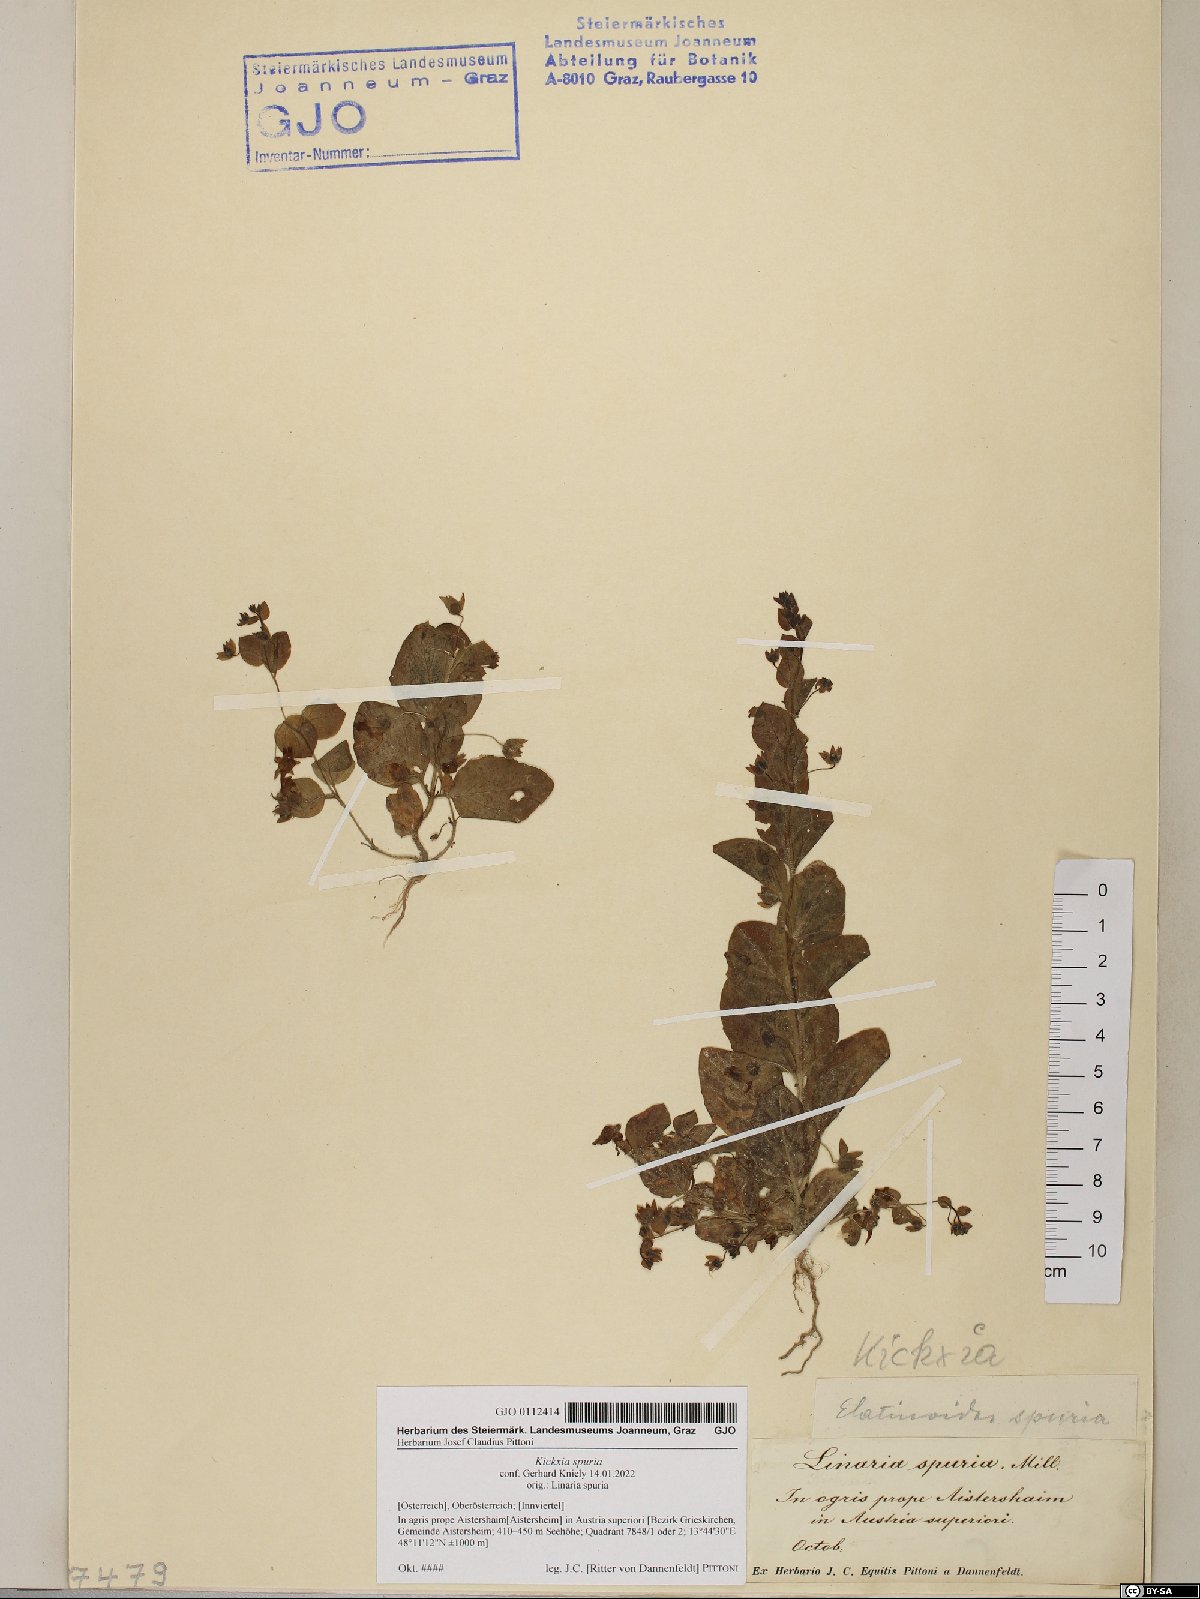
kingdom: Plantae
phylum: Tracheophyta
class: Magnoliopsida
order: Lamiales
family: Plantaginaceae
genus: Kickxia
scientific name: Kickxia spuria
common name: Round-leaved fluellen
